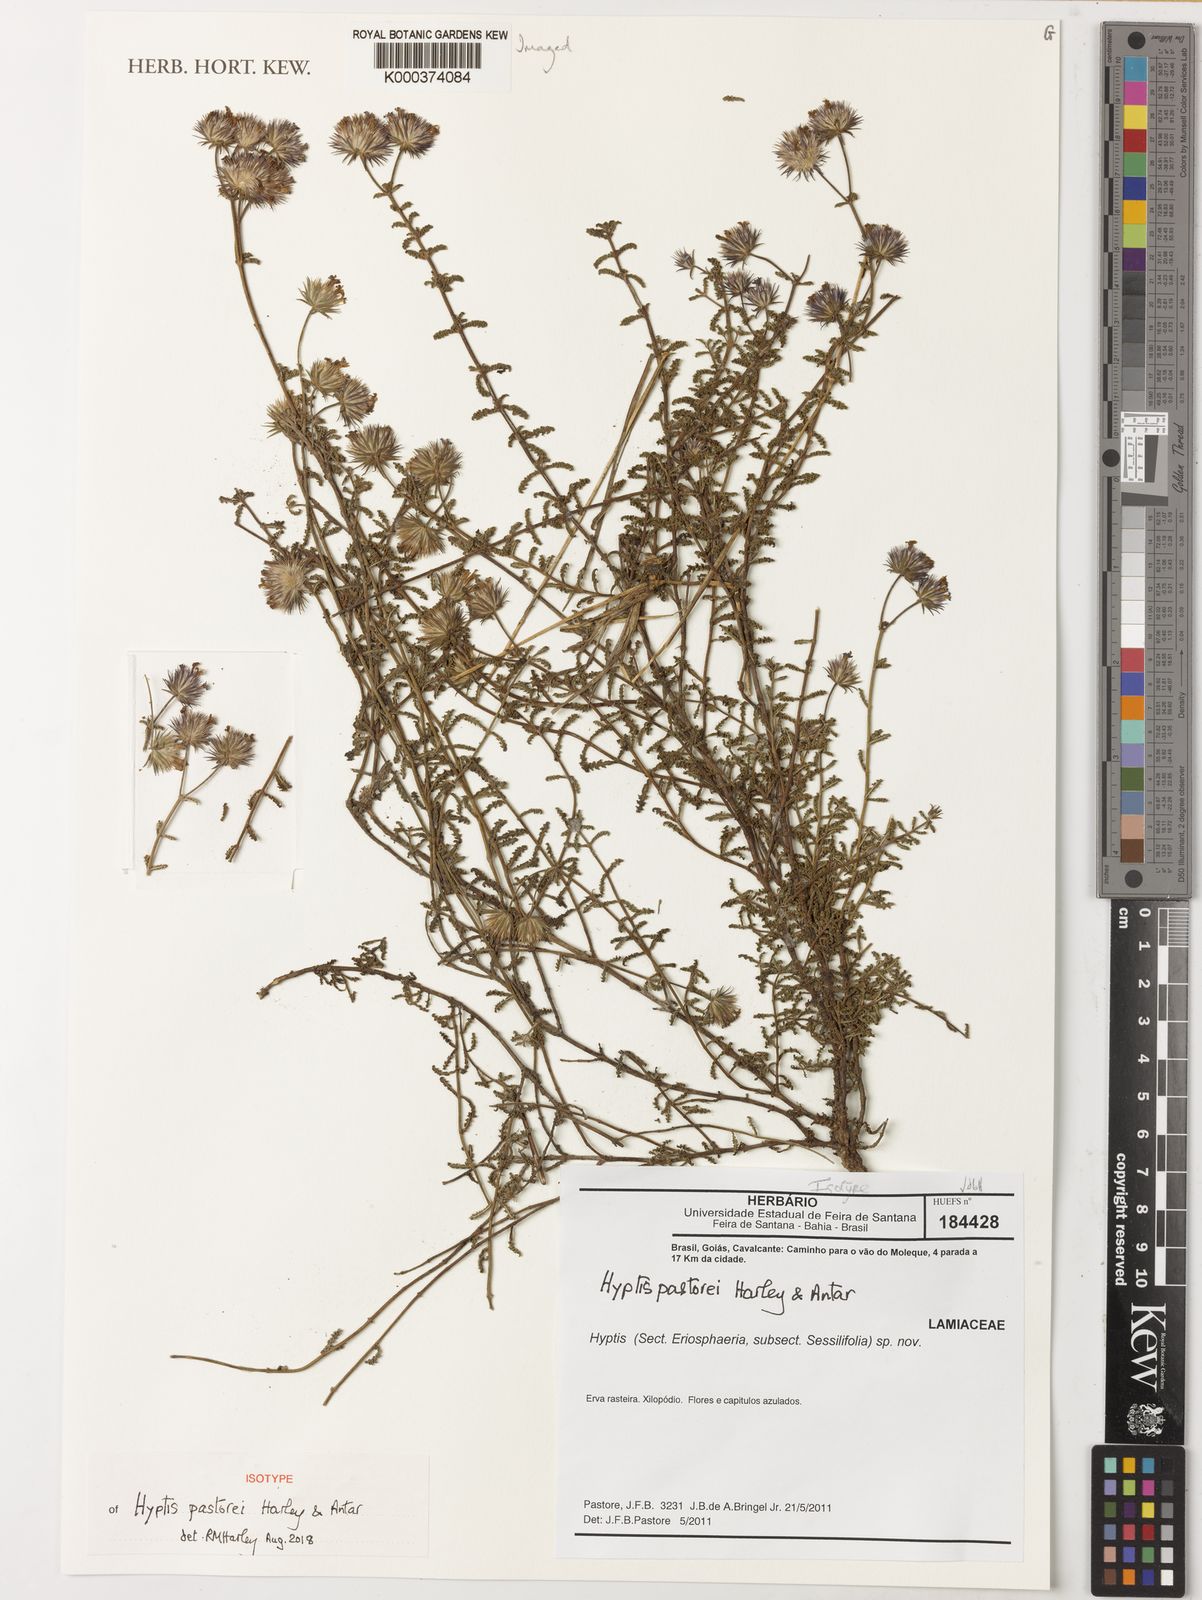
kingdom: Plantae
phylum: Tracheophyta
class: Magnoliopsida
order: Lamiales
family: Lamiaceae
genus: Hyptis
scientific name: Hyptis pastorei
